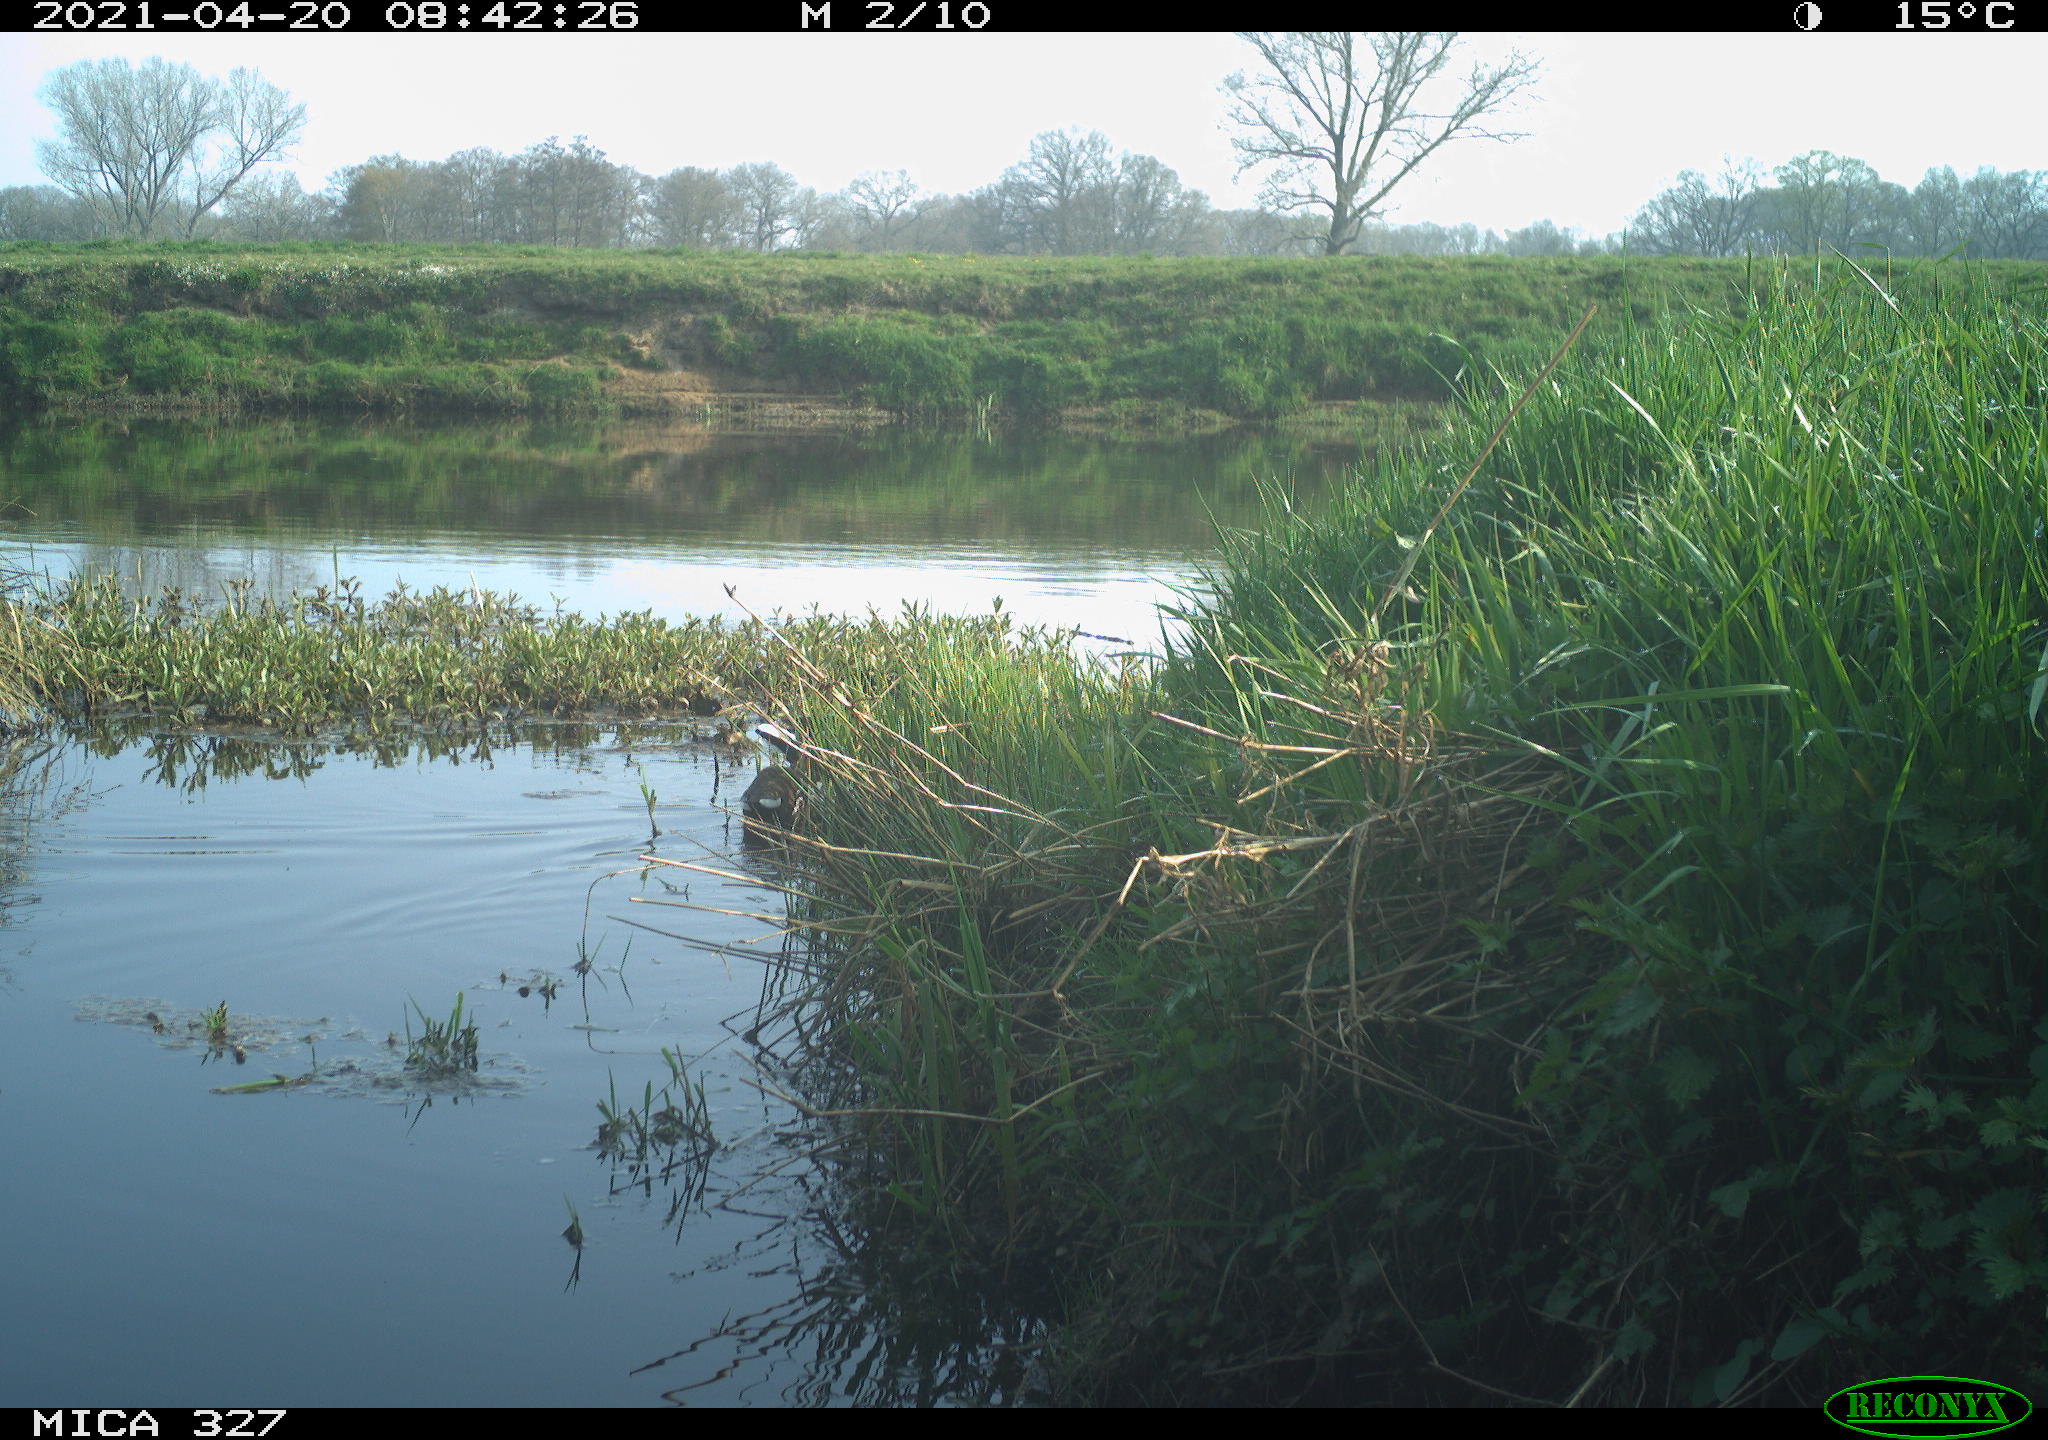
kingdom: Animalia
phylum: Chordata
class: Aves
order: Gruiformes
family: Rallidae
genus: Gallinula
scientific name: Gallinula chloropus
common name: Common moorhen
